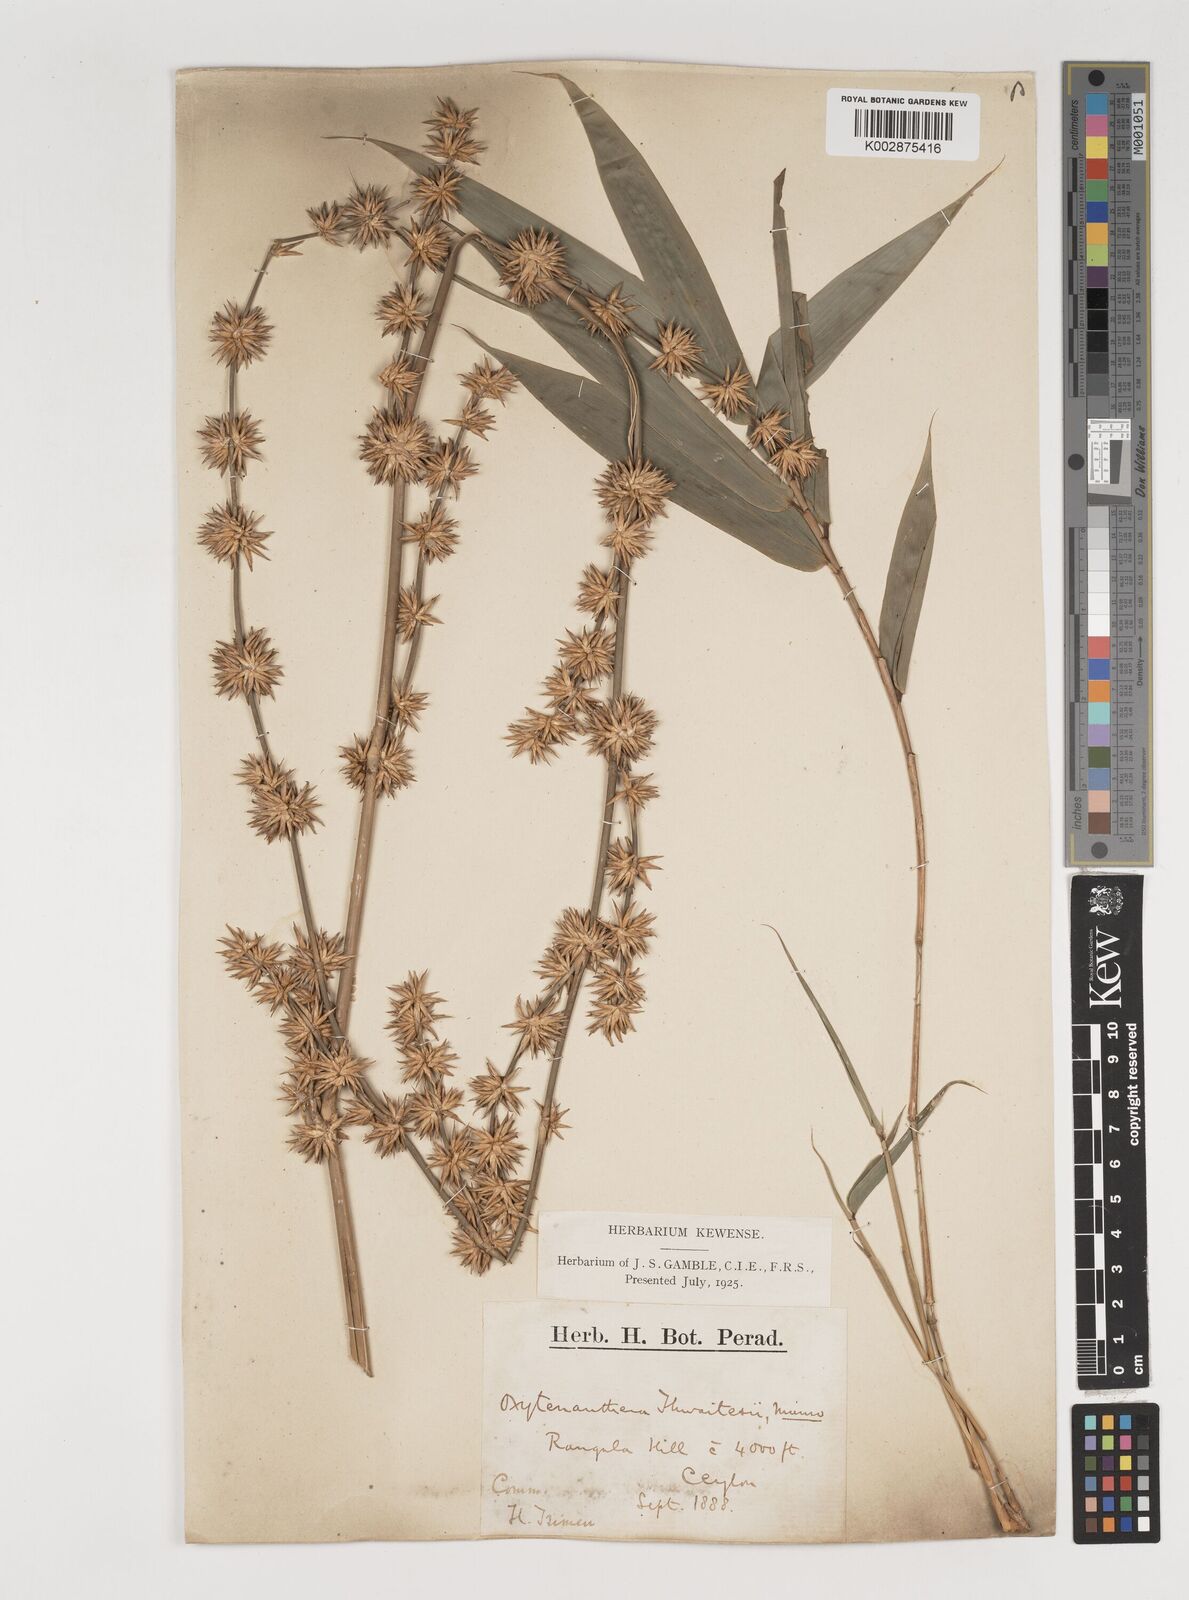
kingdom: Plantae
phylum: Tracheophyta
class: Liliopsida
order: Poales
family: Poaceae
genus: Dendrocalamus
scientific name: Dendrocalamus
